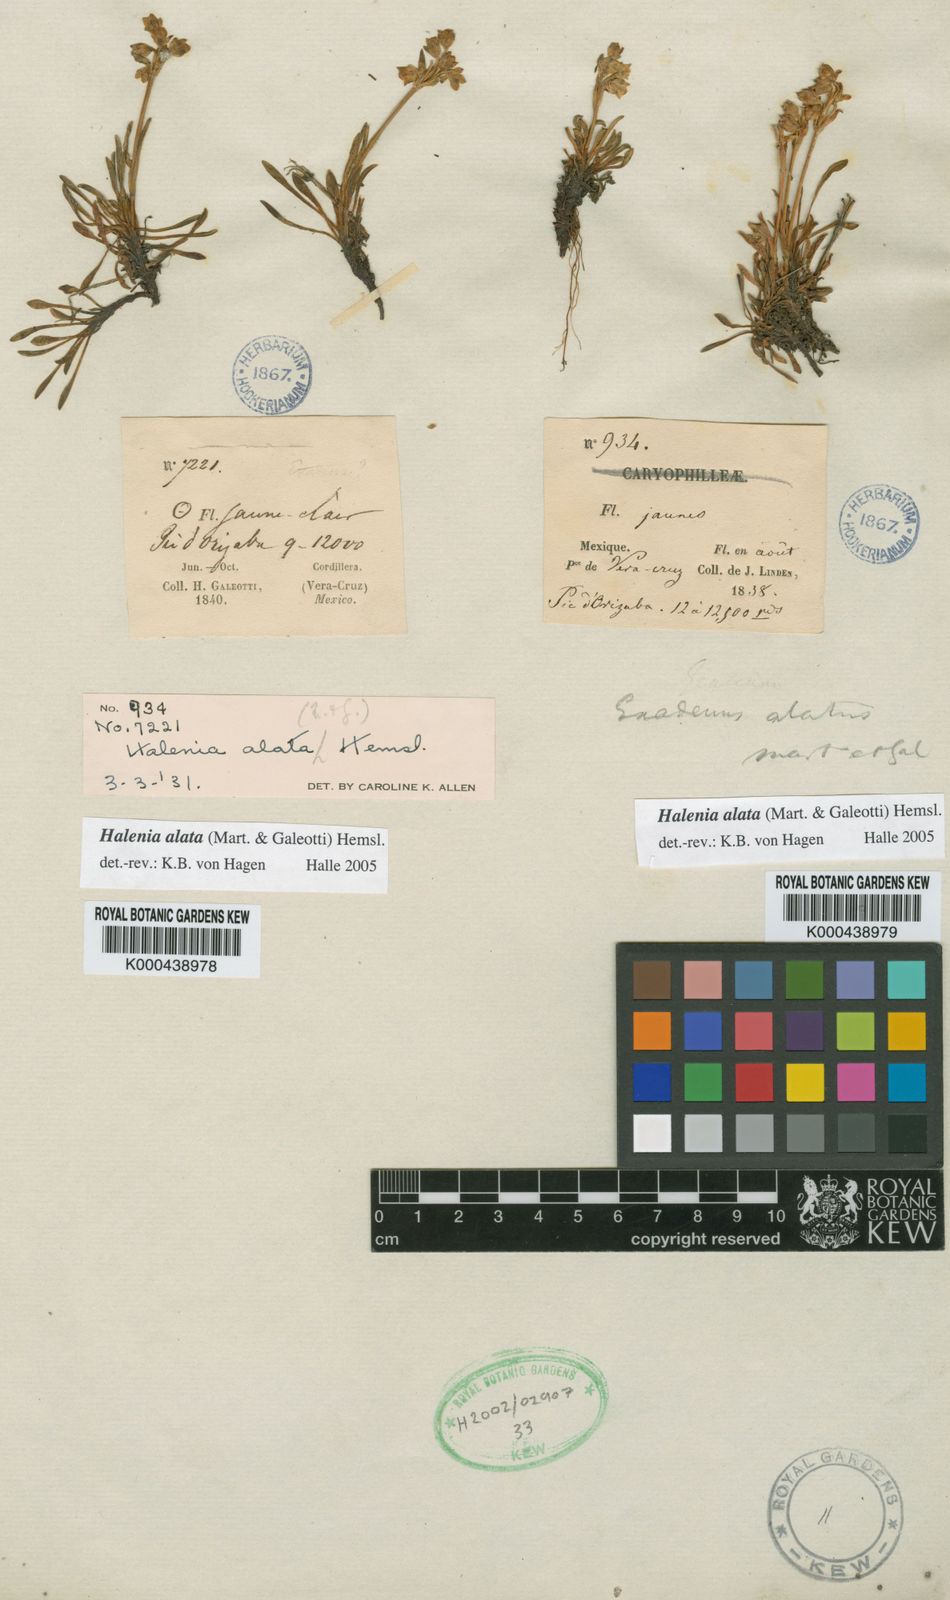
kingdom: Plantae
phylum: Tracheophyta
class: Magnoliopsida
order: Gentianales
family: Gentianaceae
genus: Halenia
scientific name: Halenia alata
